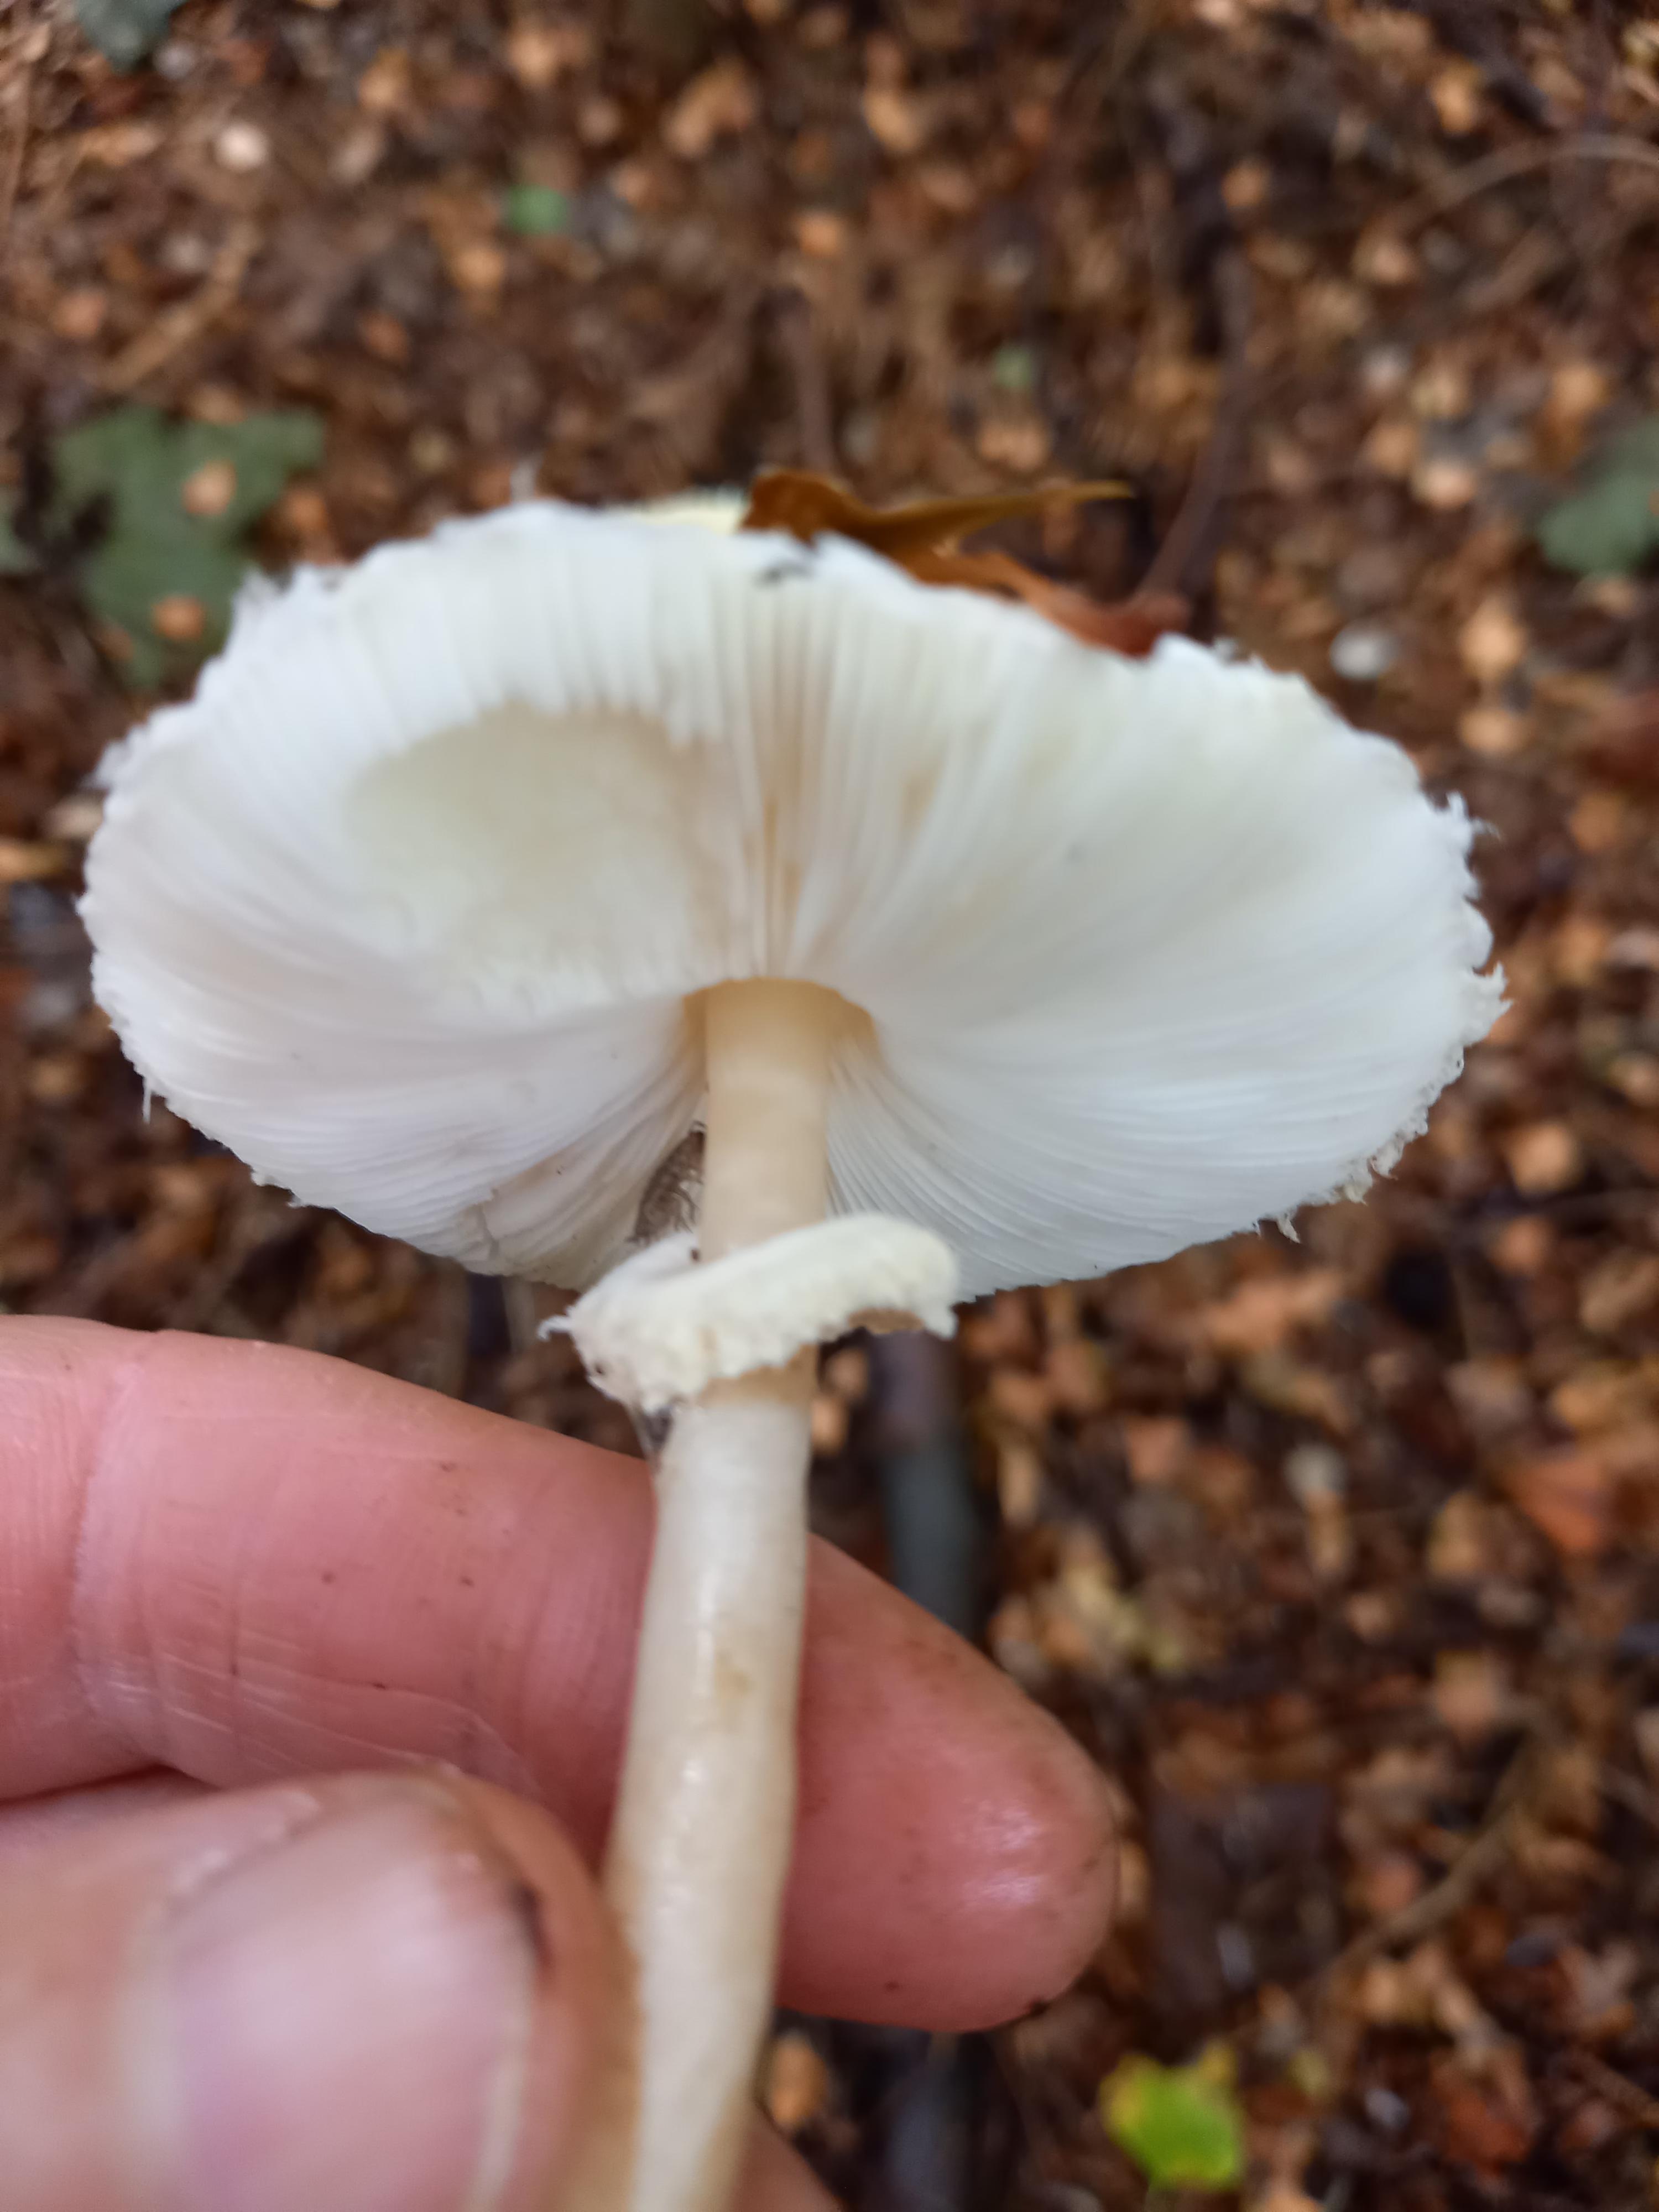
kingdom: Fungi
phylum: Basidiomycota
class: Agaricomycetes
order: Agaricales
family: Agaricaceae
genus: Leucoagaricus
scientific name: Leucoagaricus nympharum
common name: gran-silkehat
